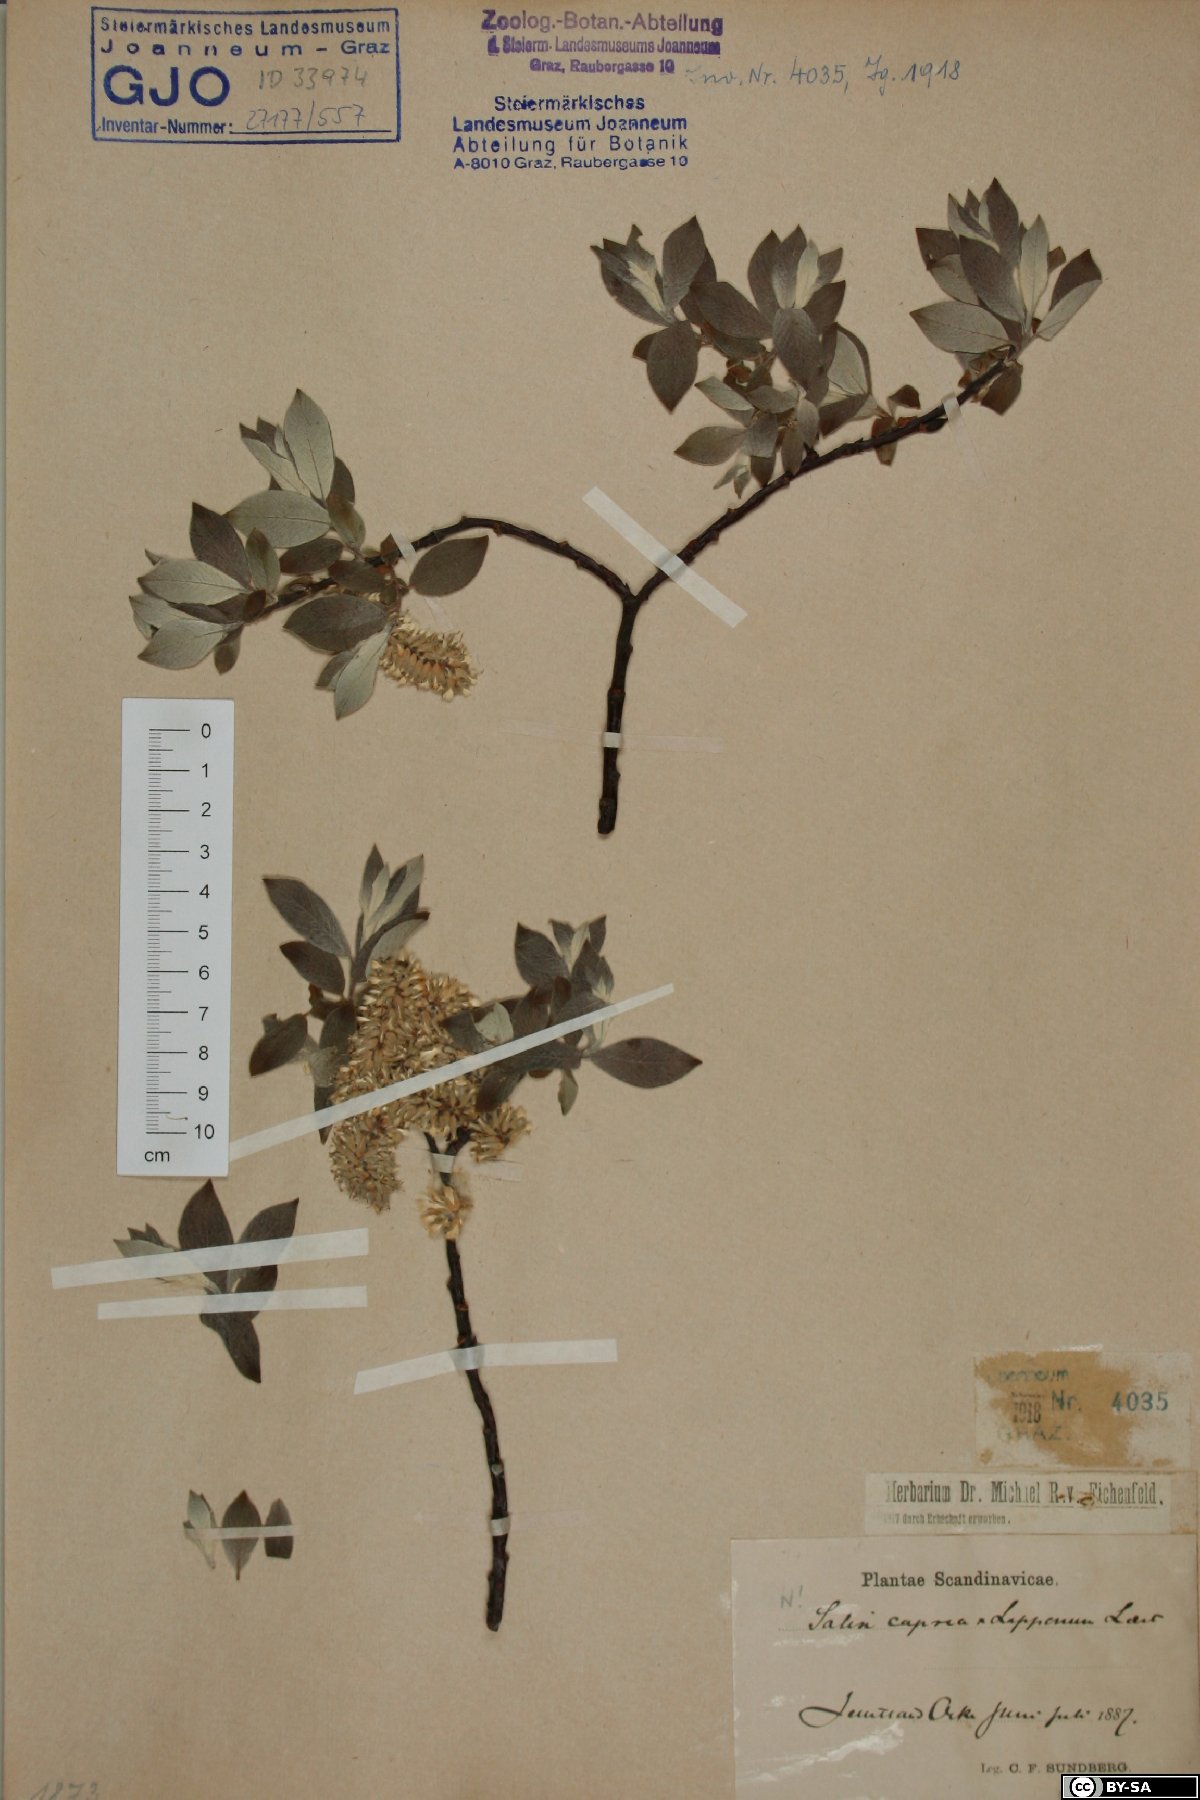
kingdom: Plantae
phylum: Tracheophyta
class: Magnoliopsida
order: Malpighiales
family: Salicaceae
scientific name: Salicaceae
